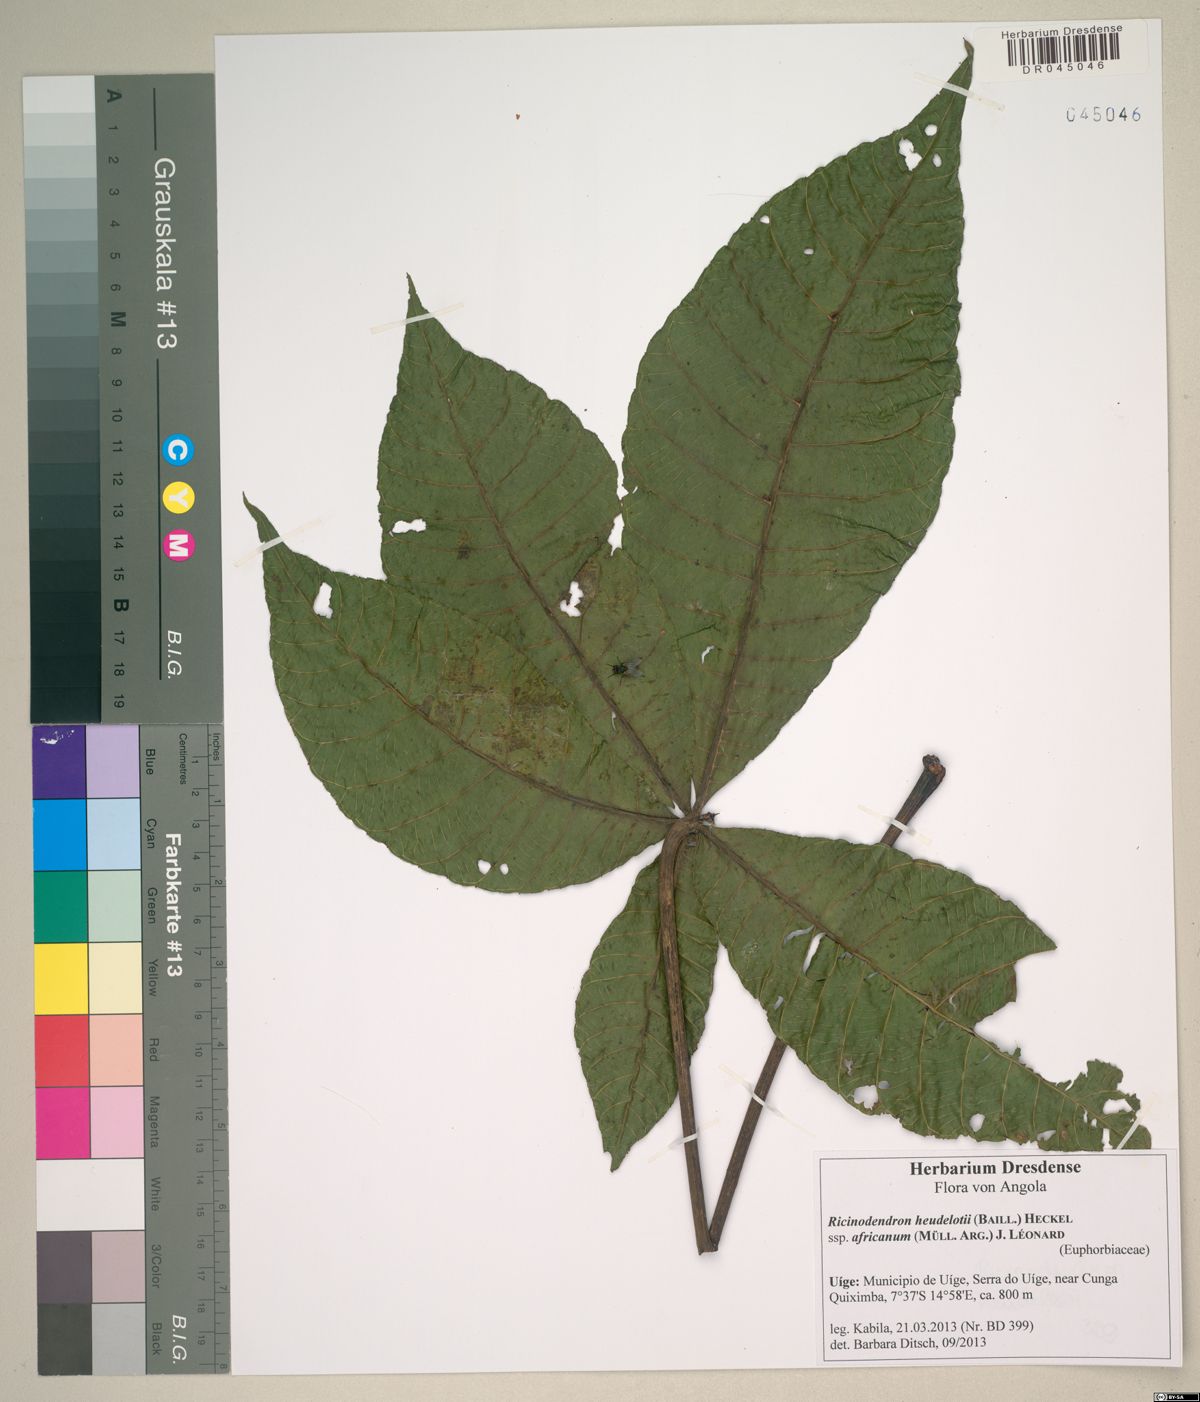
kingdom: Plantae
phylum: Tracheophyta
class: Magnoliopsida
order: Malpighiales
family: Euphorbiaceae
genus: Ricinodendron
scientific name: Ricinodendron heudelotii
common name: African nut-tree
